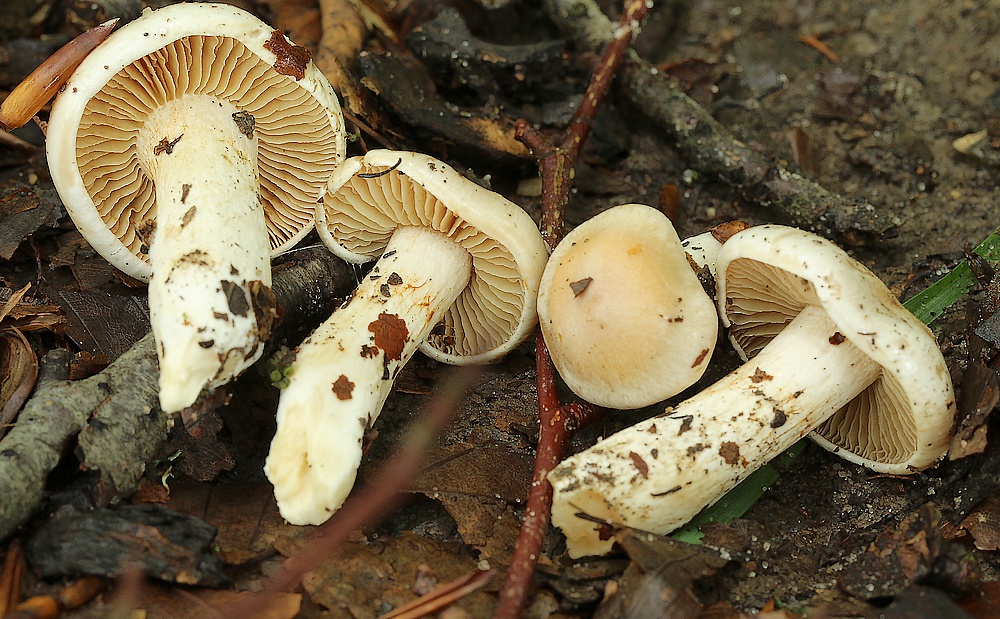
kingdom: Fungi
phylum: Basidiomycota
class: Agaricomycetes
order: Agaricales
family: Cortinariaceae
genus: Thaxterogaster
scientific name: Thaxterogaster
